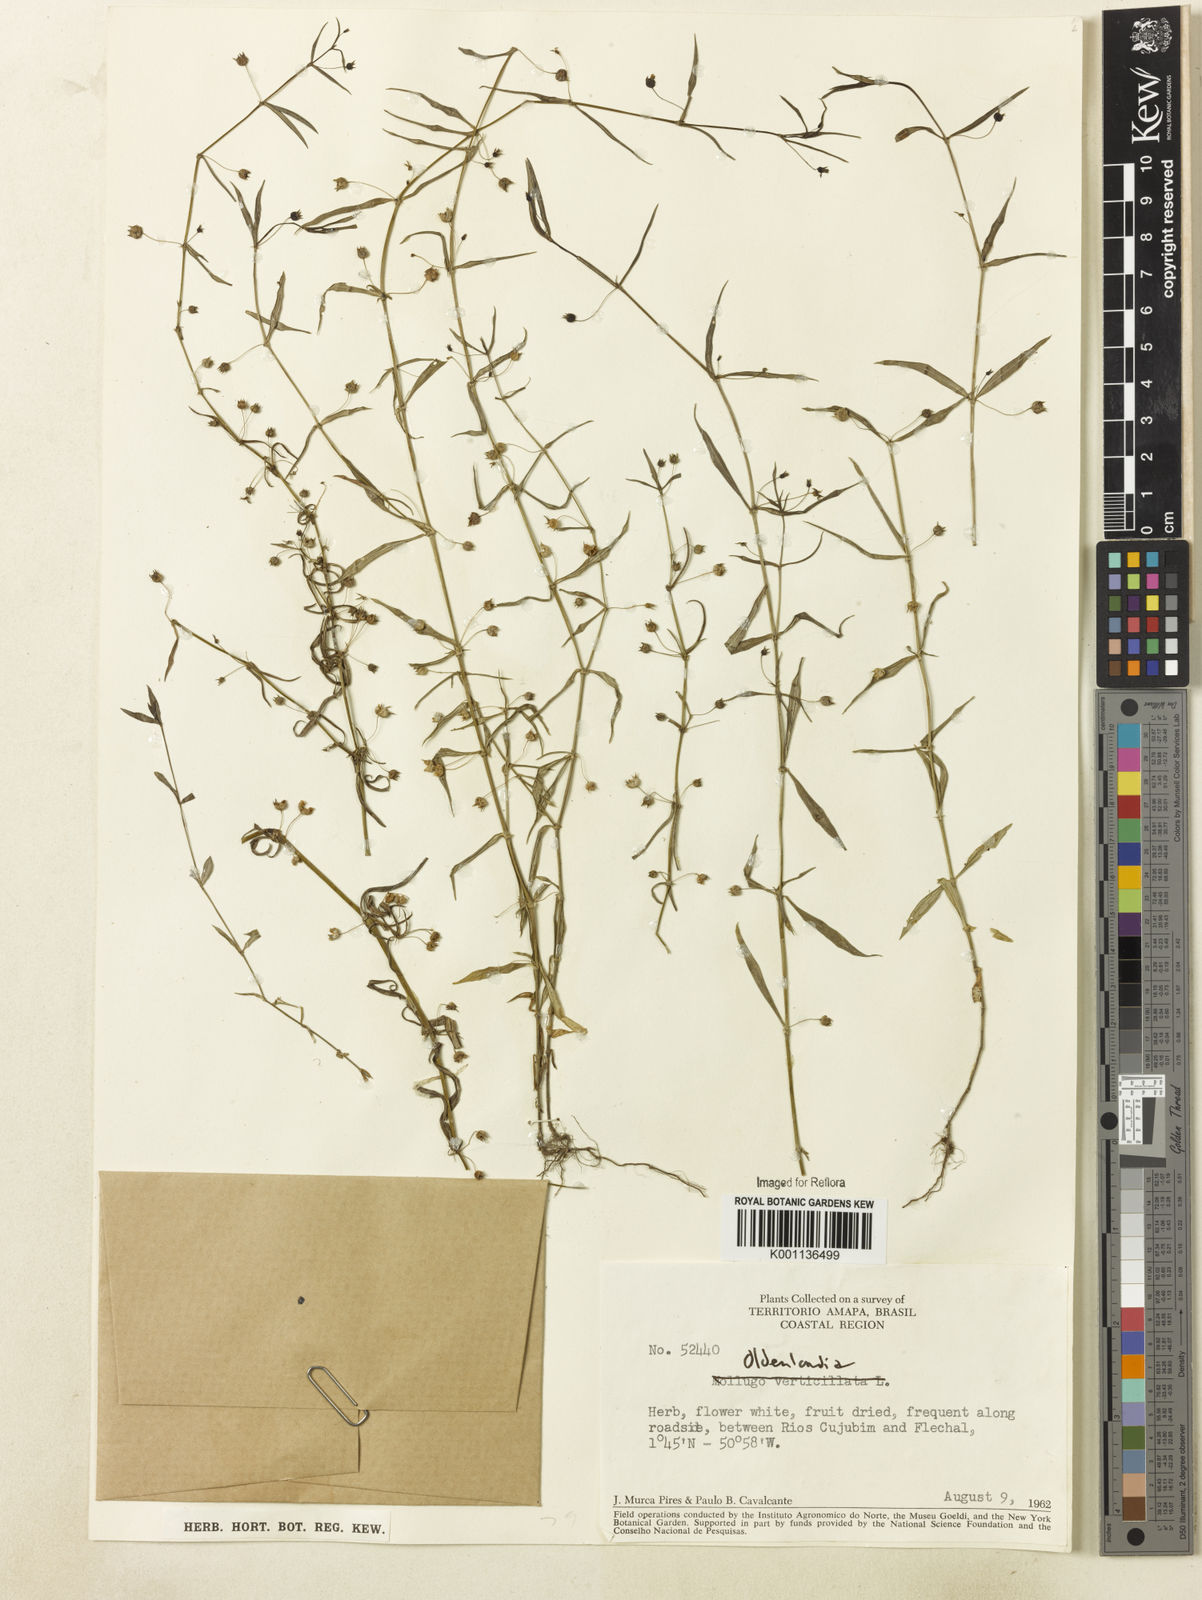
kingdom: Plantae
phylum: Tracheophyta
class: Magnoliopsida
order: Gentianales
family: Rubiaceae
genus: Oldenlandia
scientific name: Oldenlandia lancifolia
